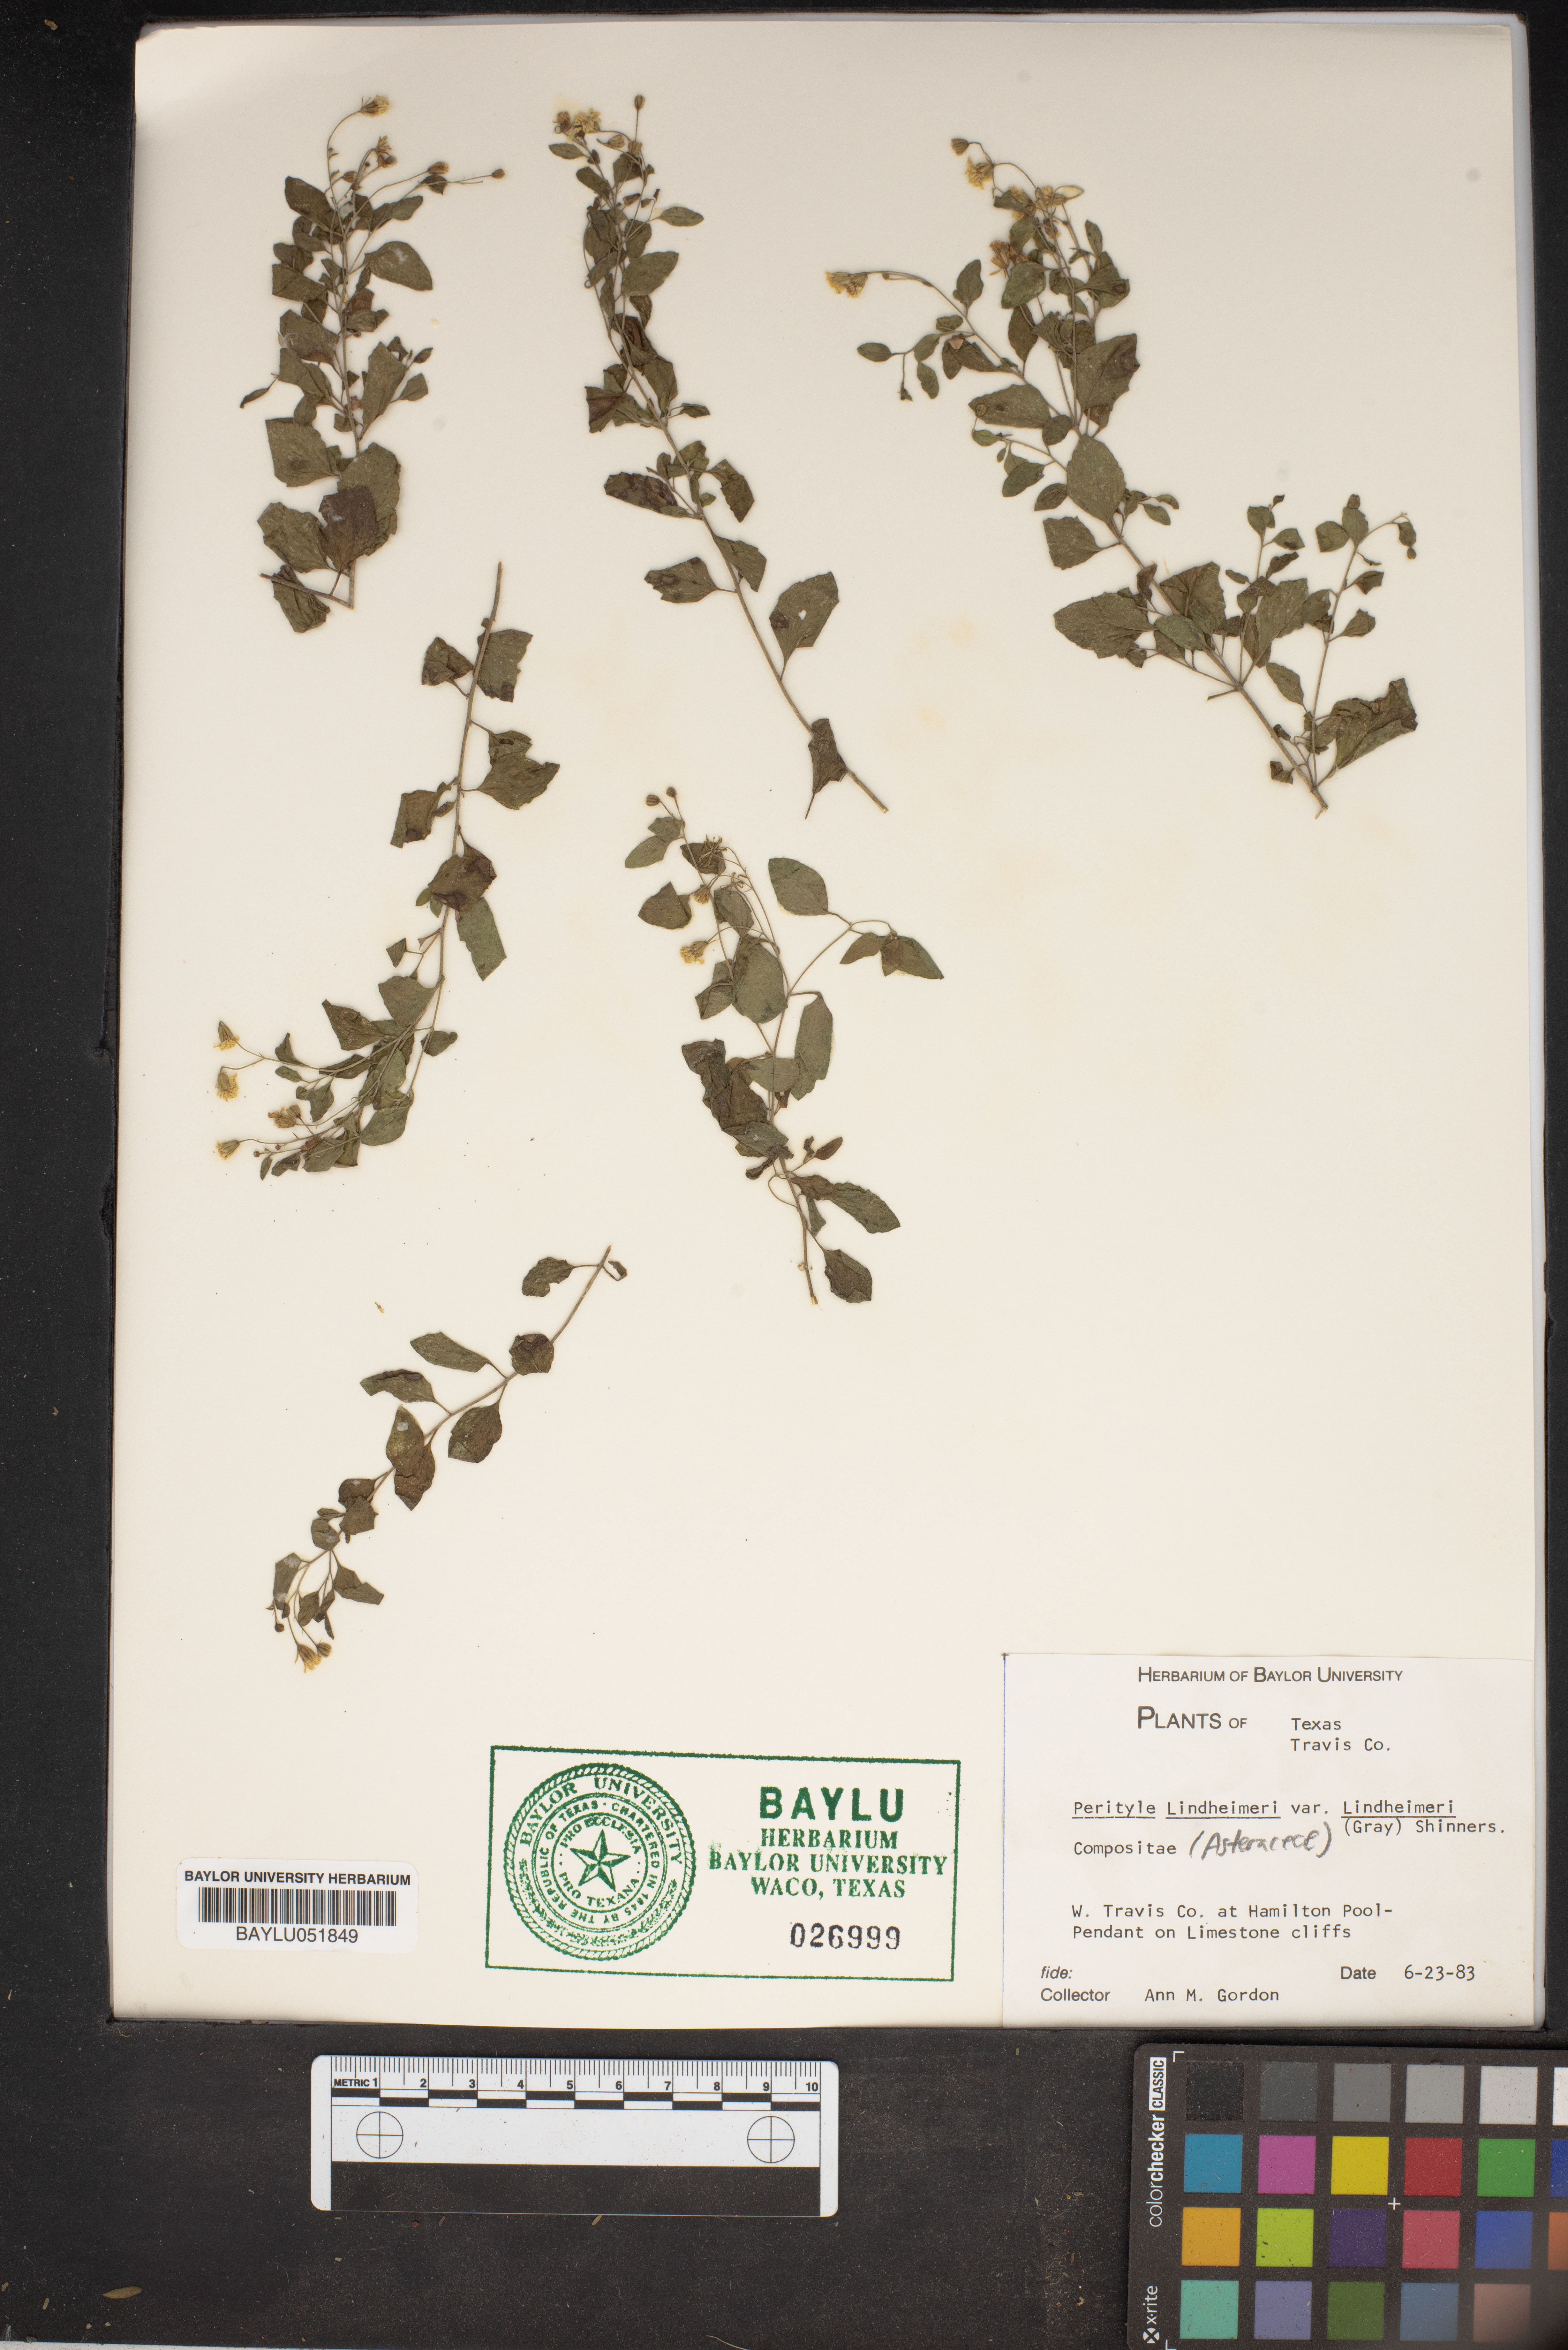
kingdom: Plantae
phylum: Tracheophyta
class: Magnoliopsida
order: Asterales
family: Asteraceae
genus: Laphamia
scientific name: Laphamia lindheimeri
